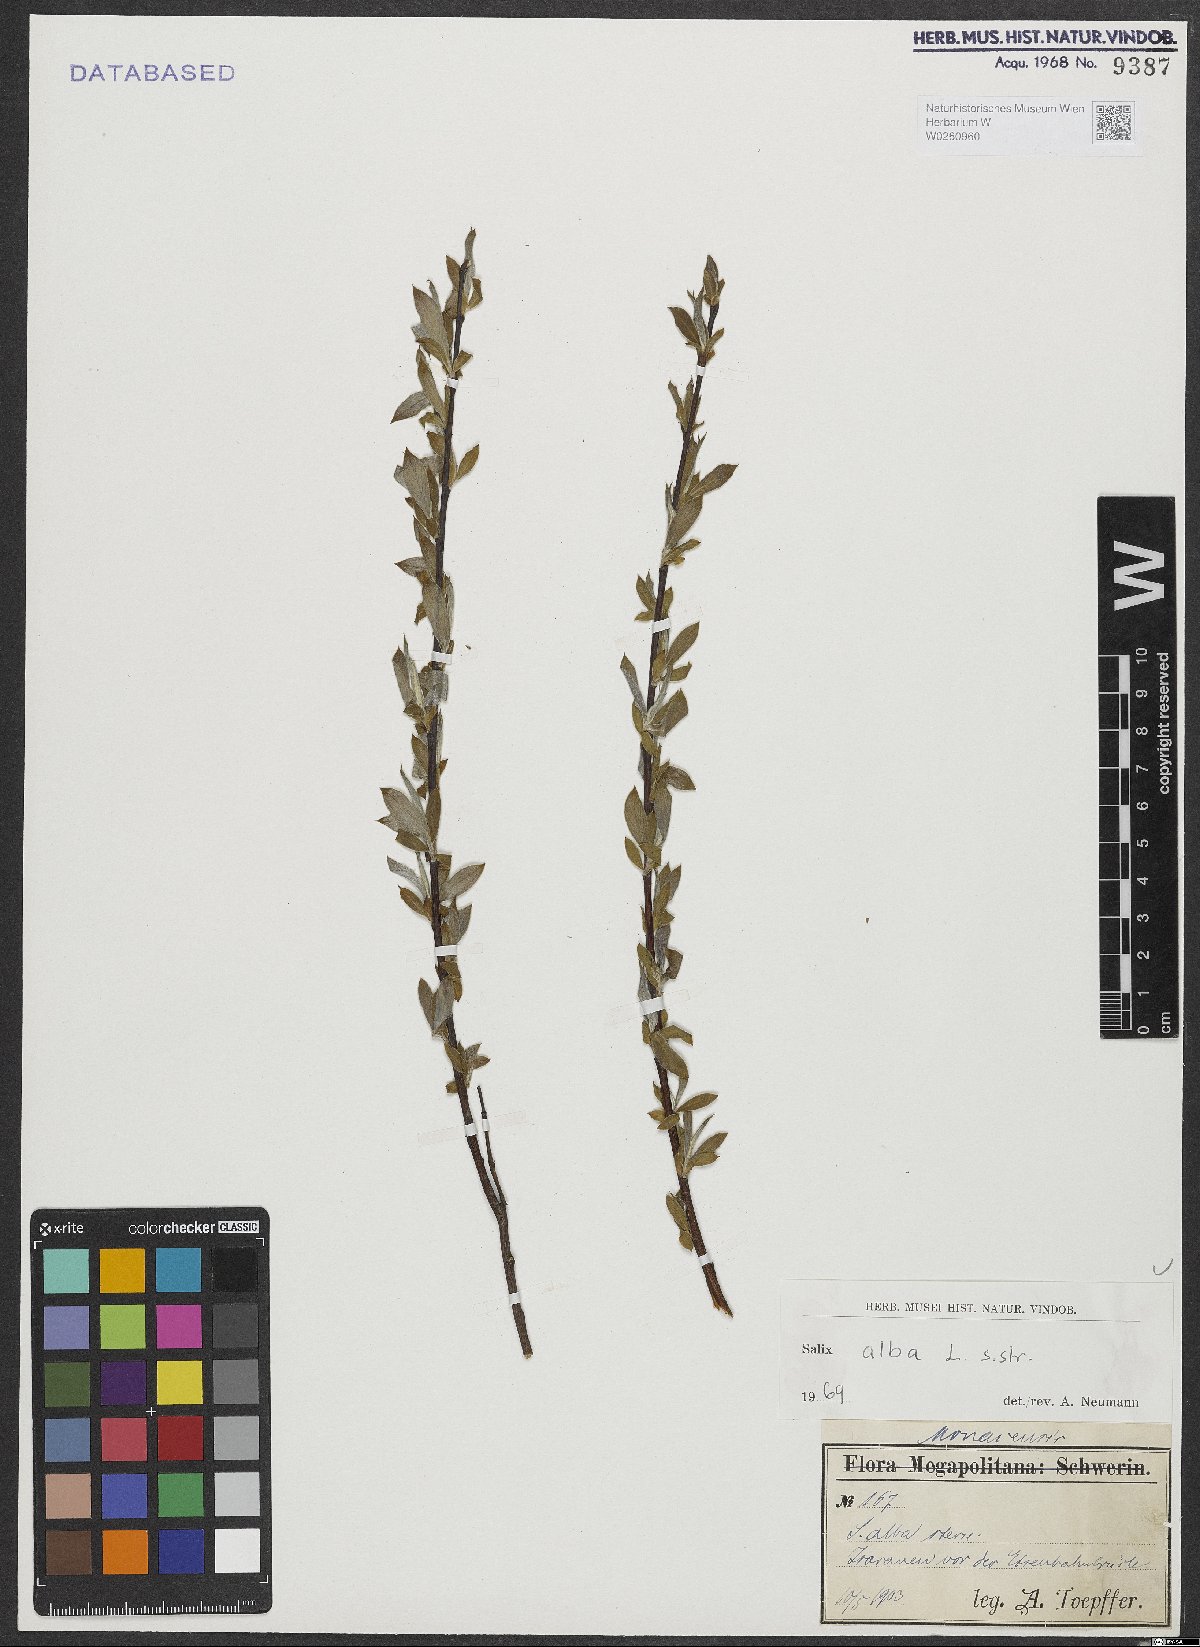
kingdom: Plantae
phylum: Tracheophyta
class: Magnoliopsida
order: Malpighiales
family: Salicaceae
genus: Salix
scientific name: Salix alba
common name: White willow
